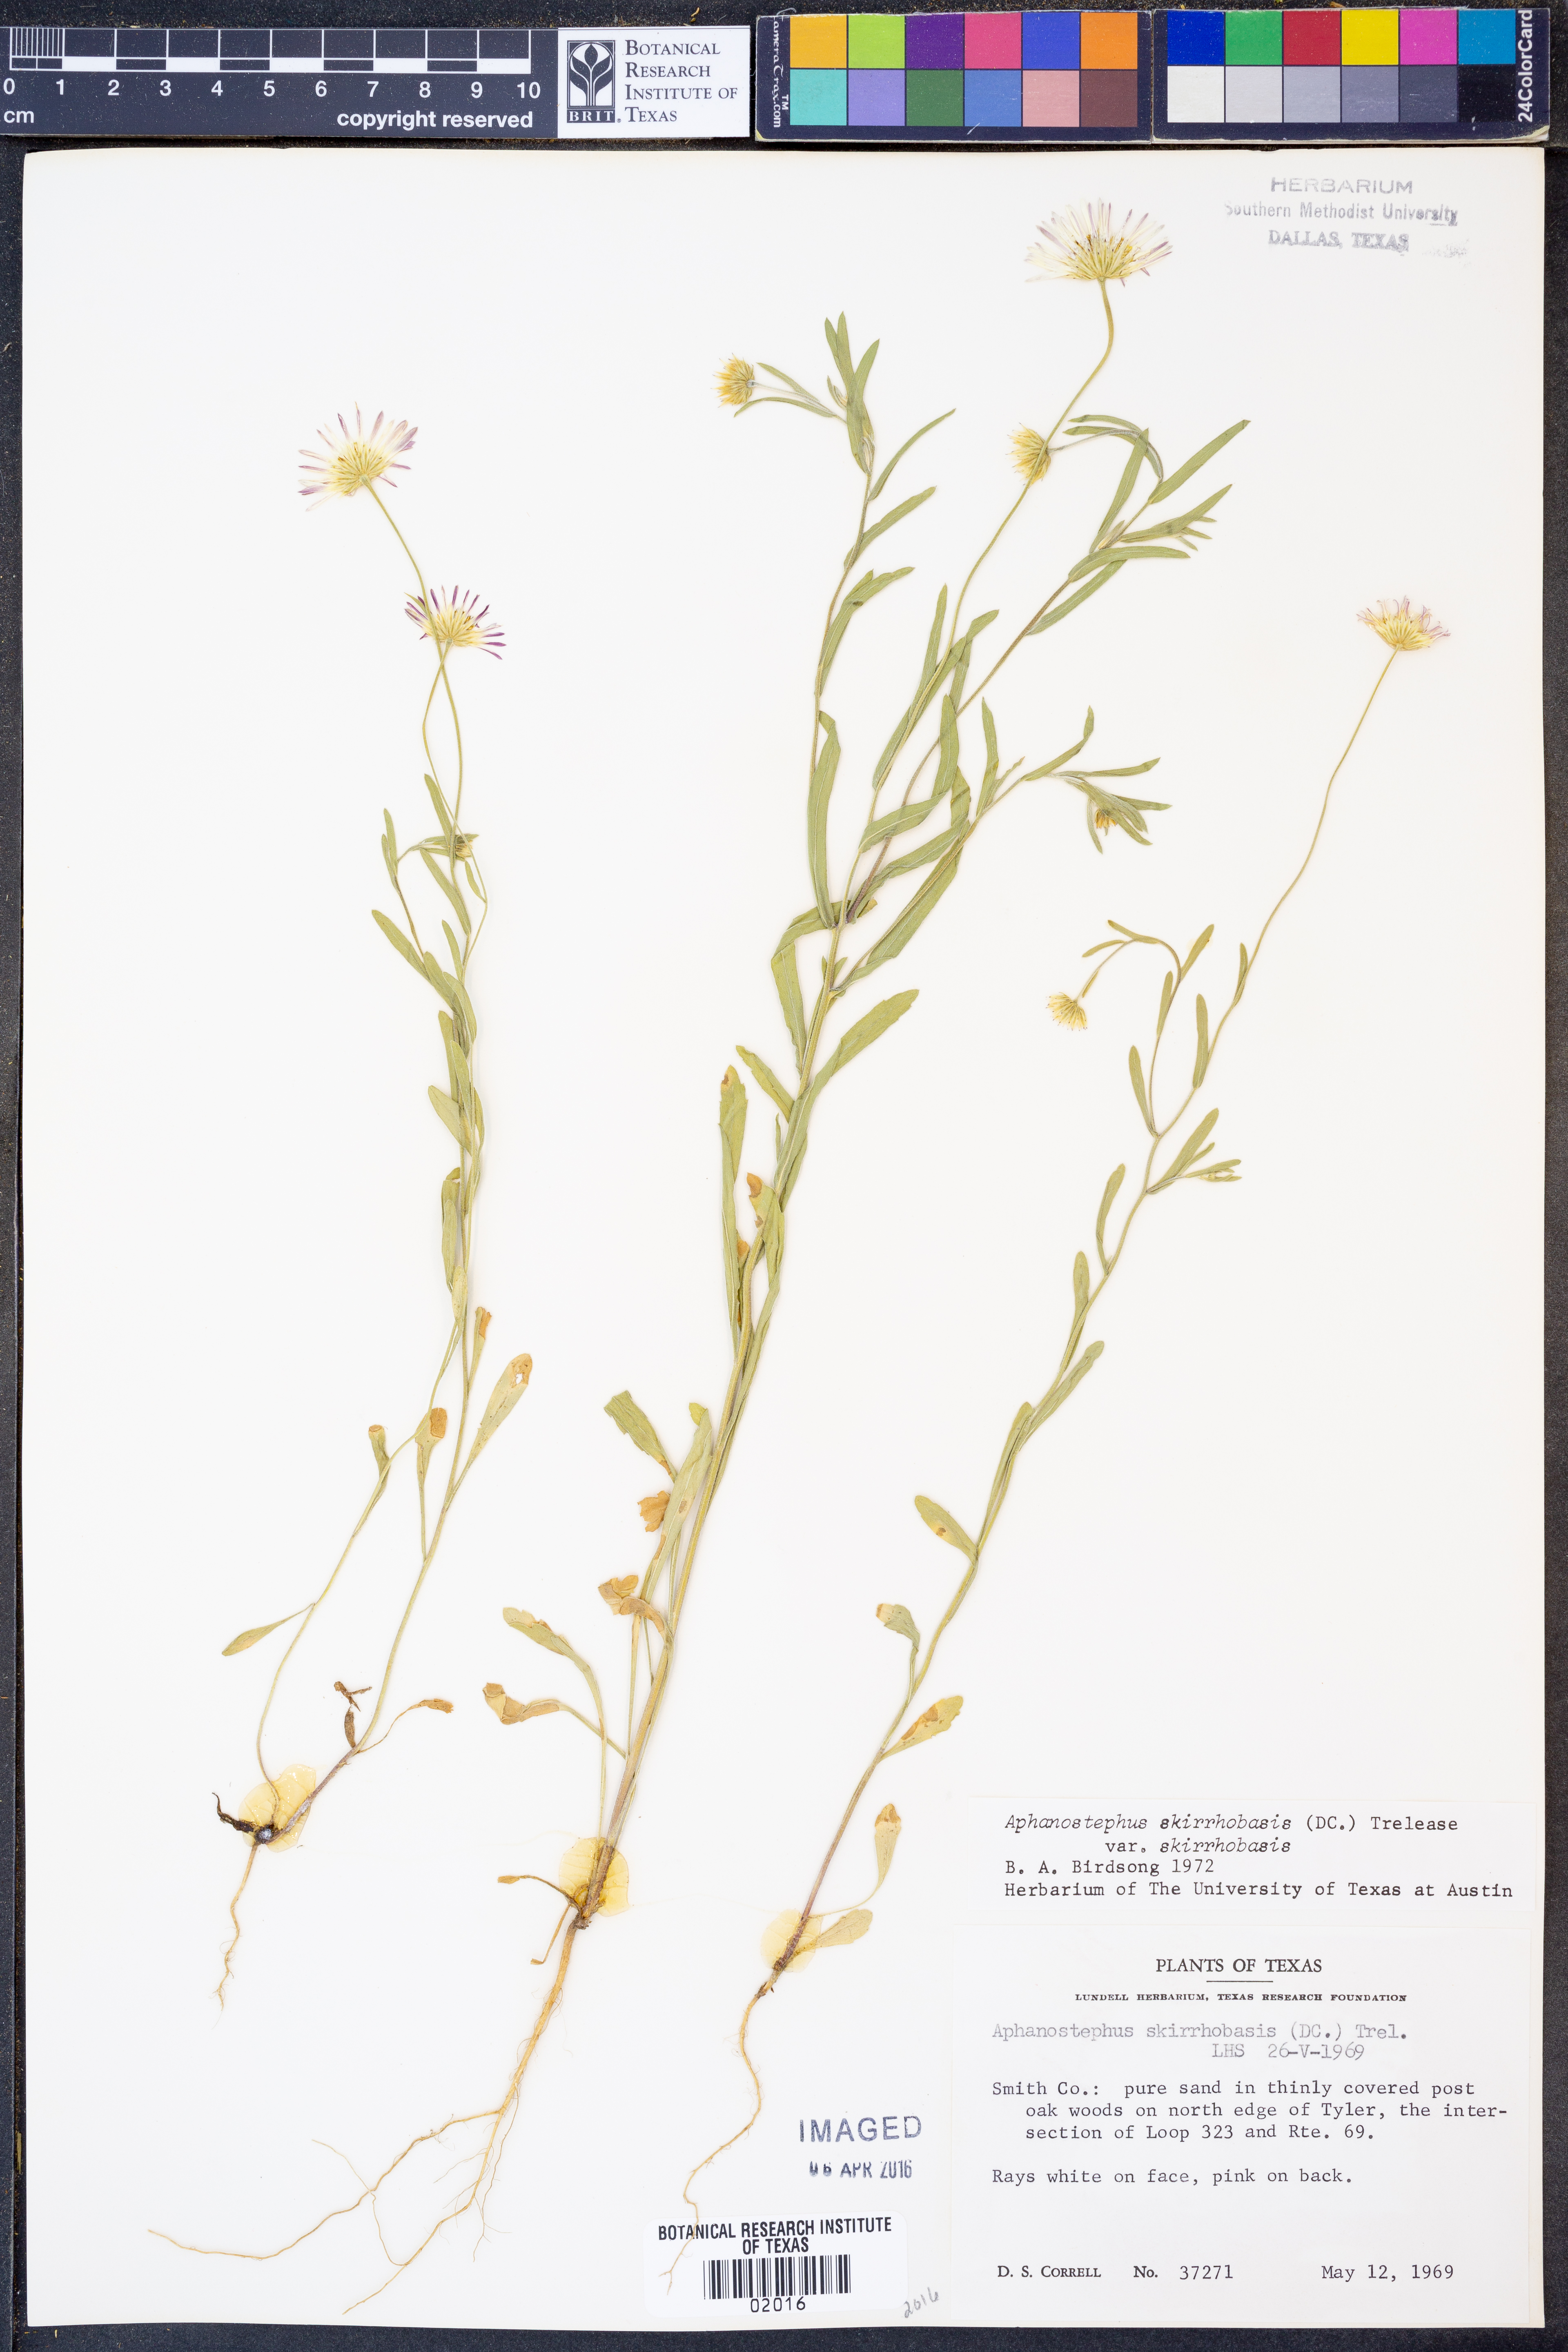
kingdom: Plantae
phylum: Tracheophyta
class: Magnoliopsida
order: Asterales
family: Asteraceae
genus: Aphanostephus
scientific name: Aphanostephus skirrhobasis
